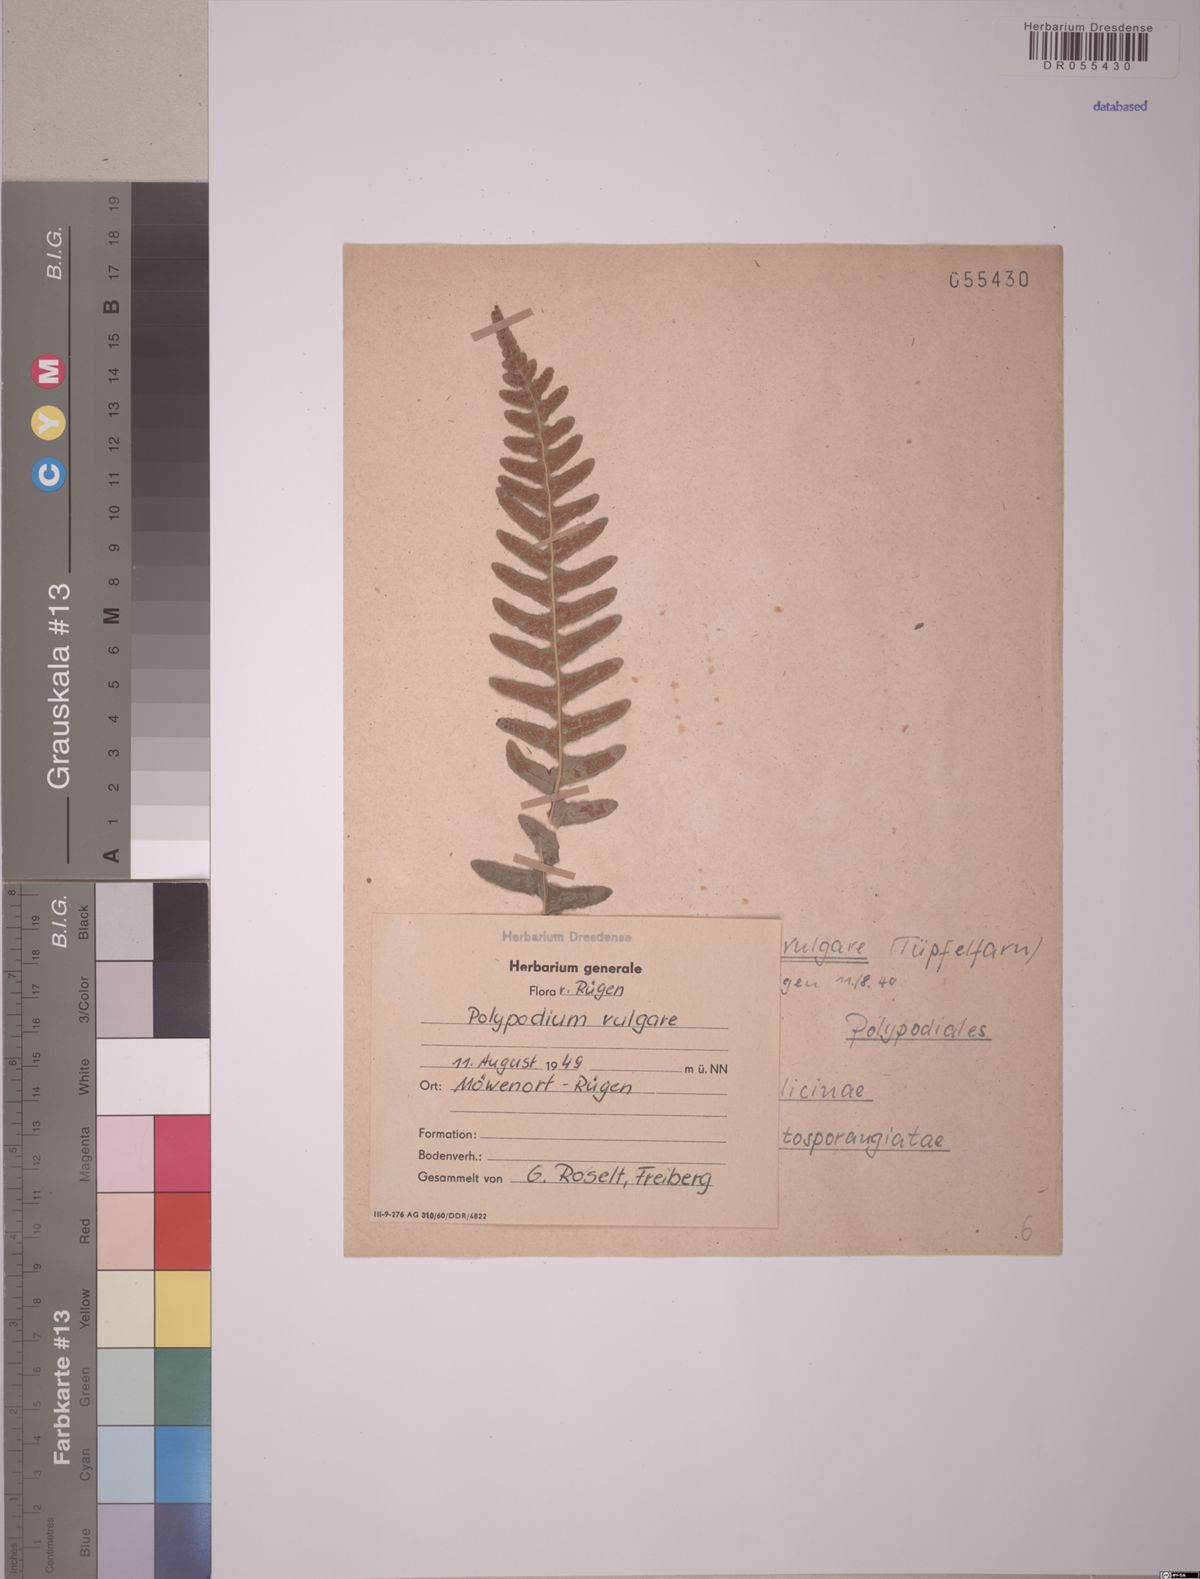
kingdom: Plantae
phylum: Tracheophyta
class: Polypodiopsida
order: Polypodiales
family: Polypodiaceae
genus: Polypodium
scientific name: Polypodium vulgare
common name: Common polypody
